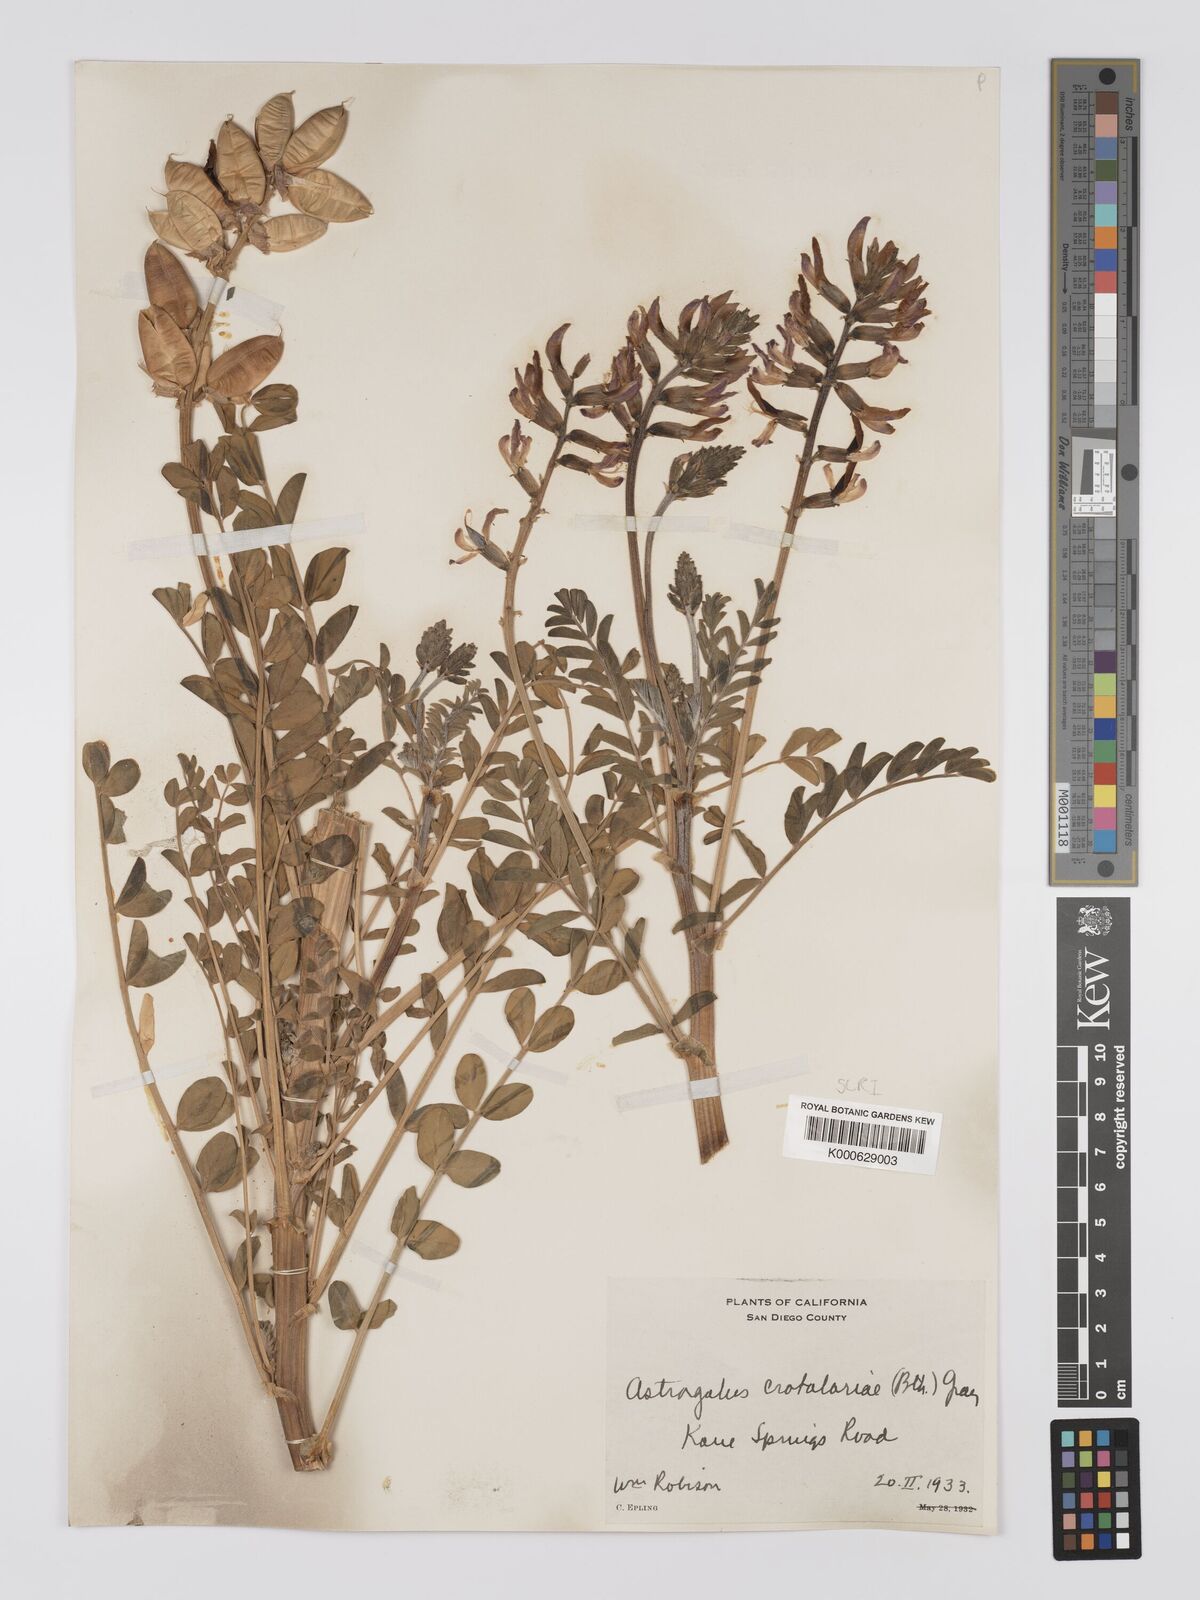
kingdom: Plantae
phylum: Tracheophyta
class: Magnoliopsida
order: Fabales
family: Fabaceae
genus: Astragalus
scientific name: Astragalus crotalariae
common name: Salton milkvetch
